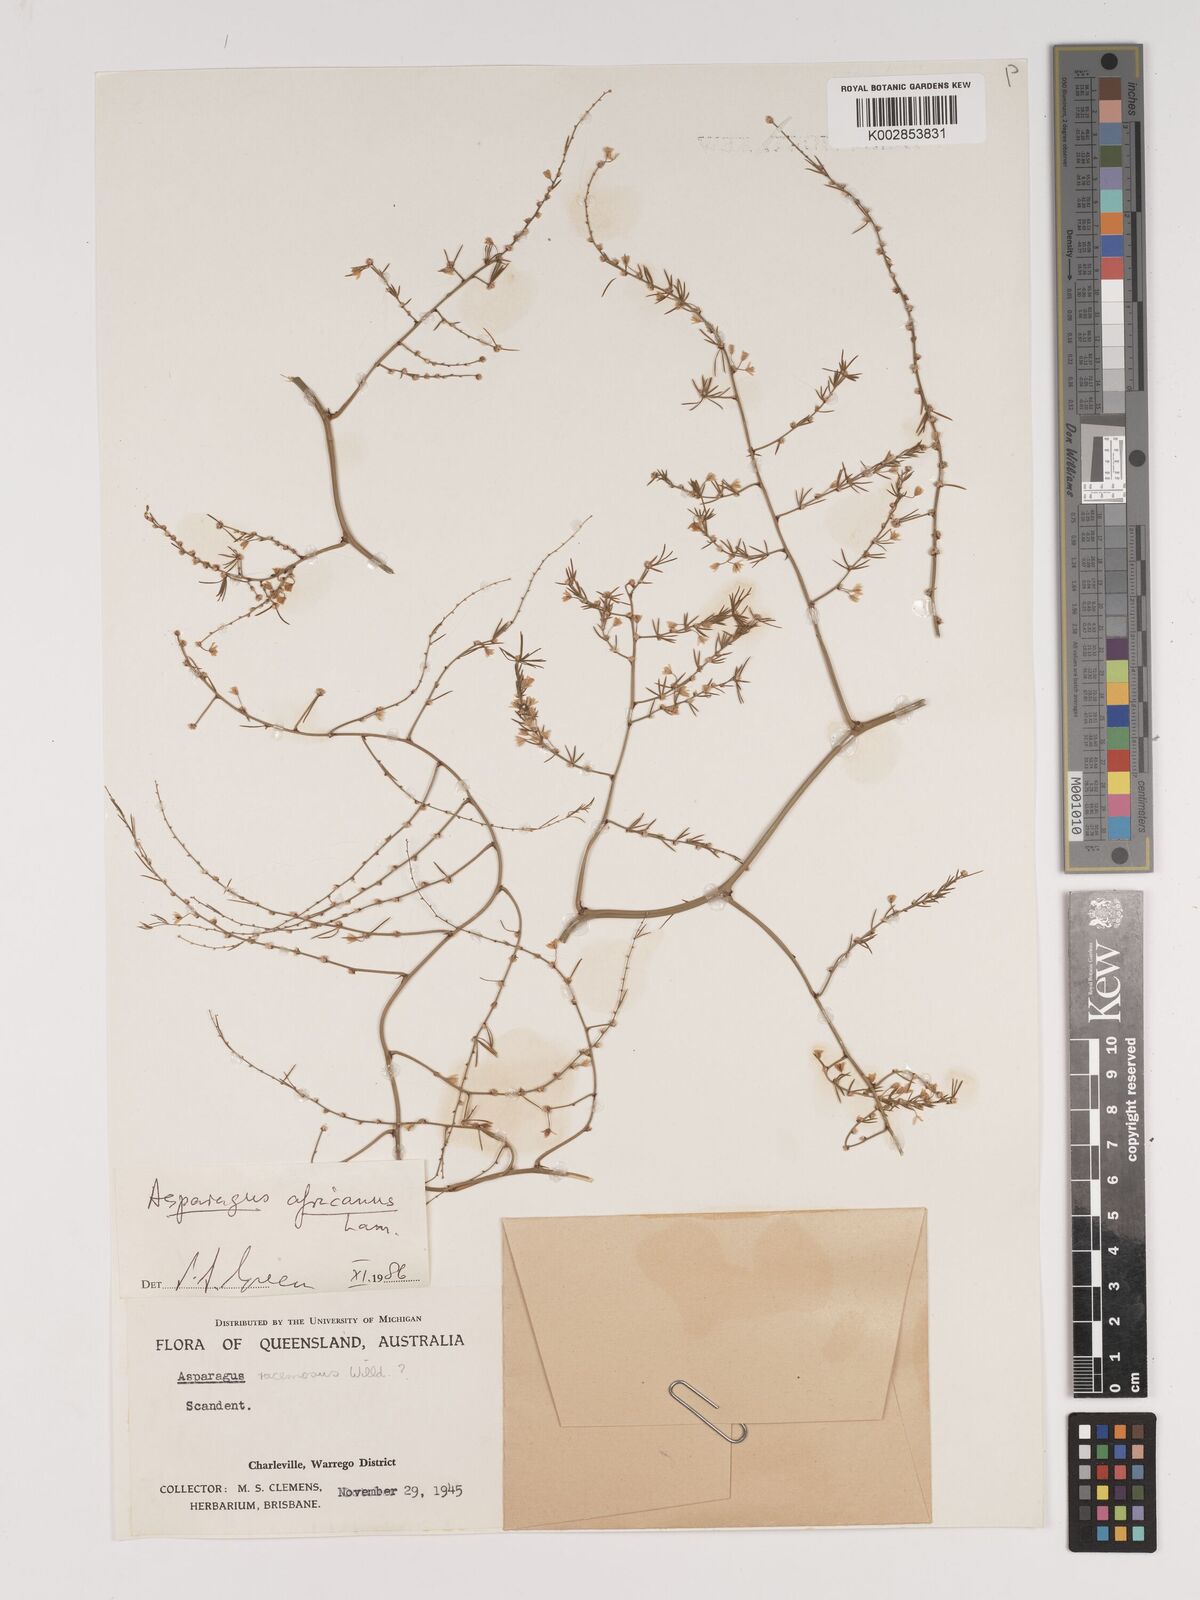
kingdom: Plantae
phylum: Tracheophyta
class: Liliopsida
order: Asparagales
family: Asparagaceae
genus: Asparagus
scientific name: Asparagus africanus
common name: Asparagus-fern
